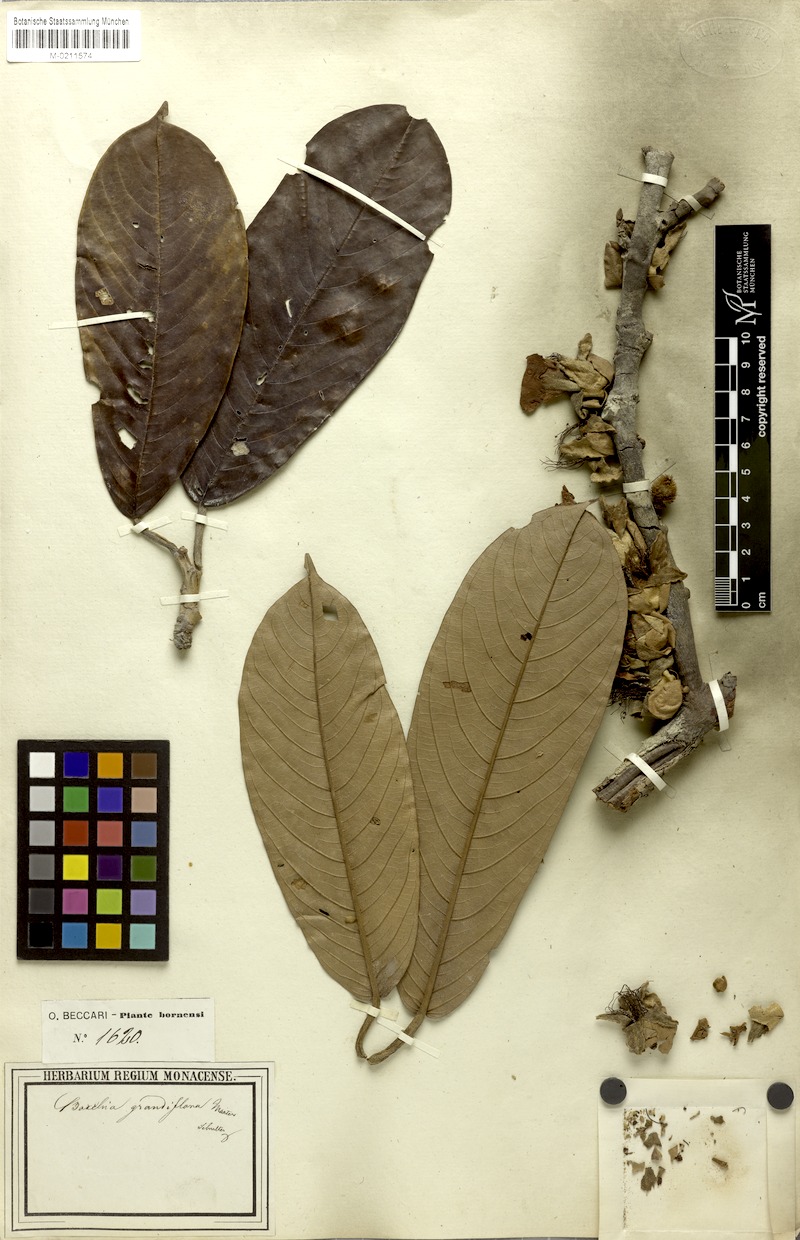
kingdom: Plantae
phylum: Tracheophyta
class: Magnoliopsida
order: Malvales
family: Malvaceae
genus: Boschia
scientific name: Boschia grandiflora
